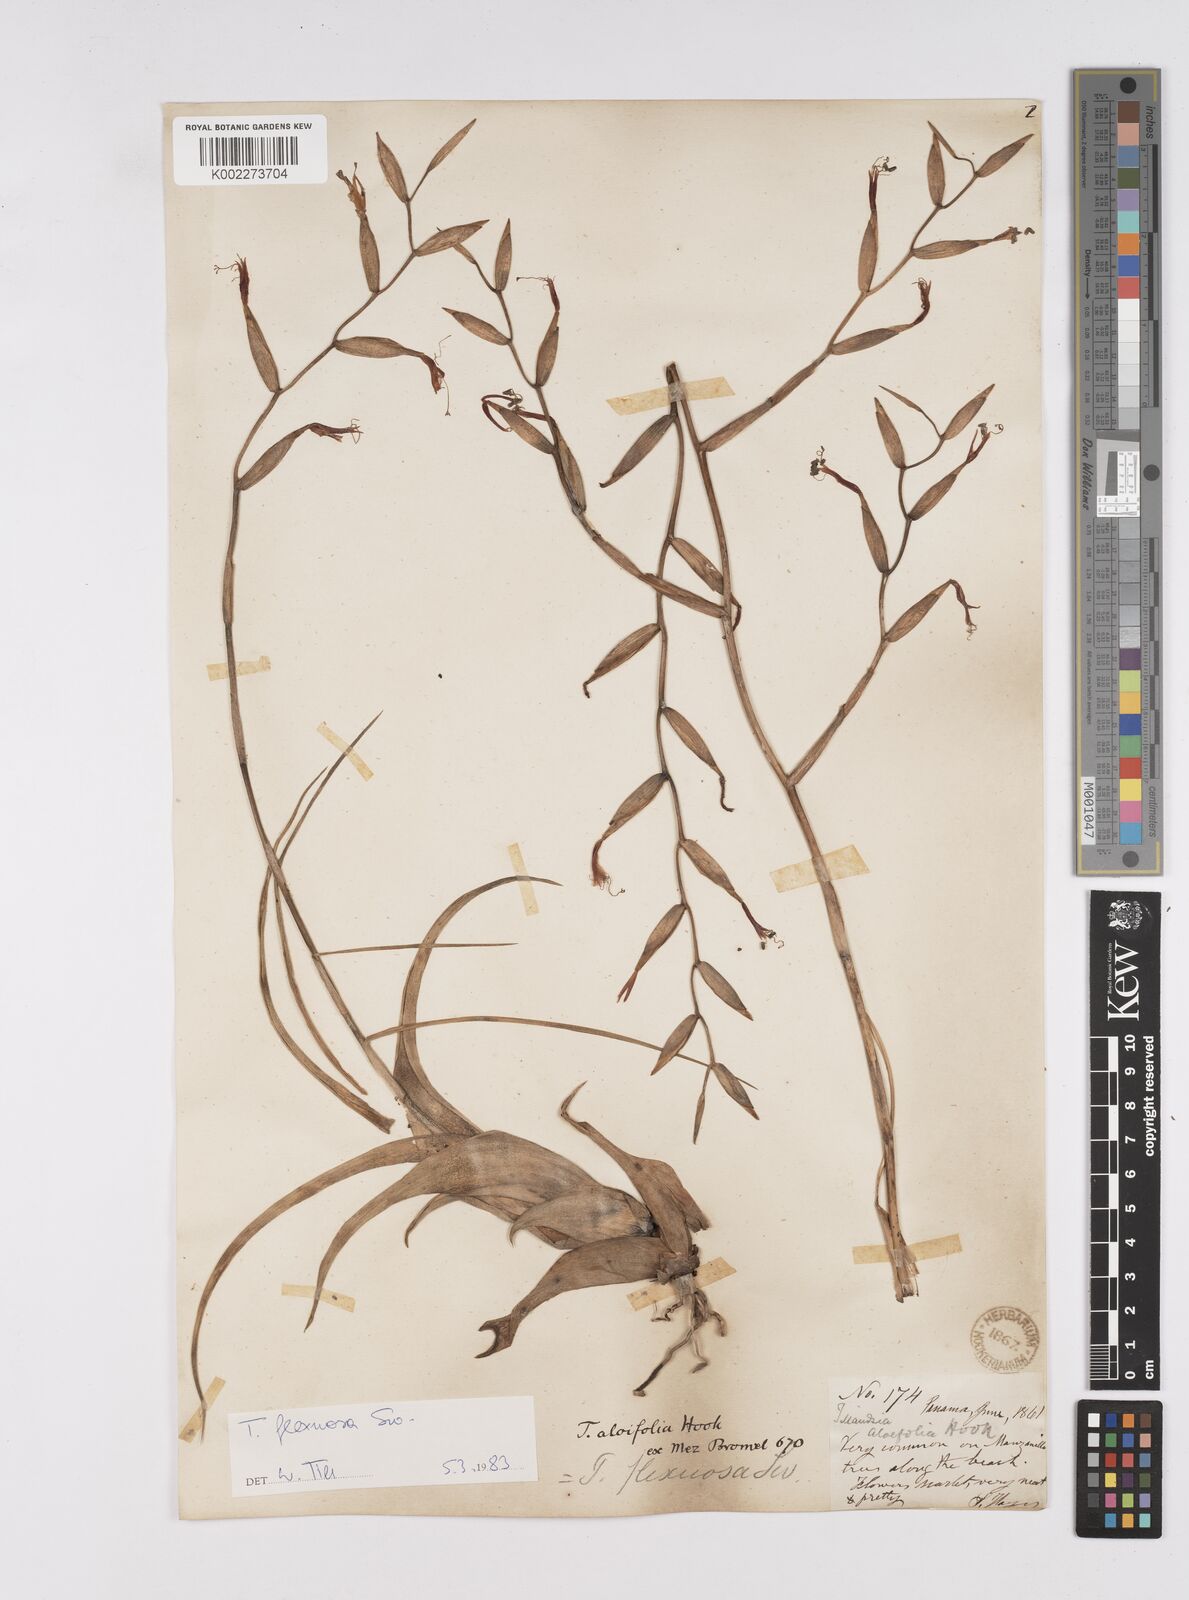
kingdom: Plantae
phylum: Tracheophyta
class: Liliopsida
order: Poales
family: Bromeliaceae
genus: Tillandsia
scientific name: Tillandsia flexuosa
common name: Banded airplant
